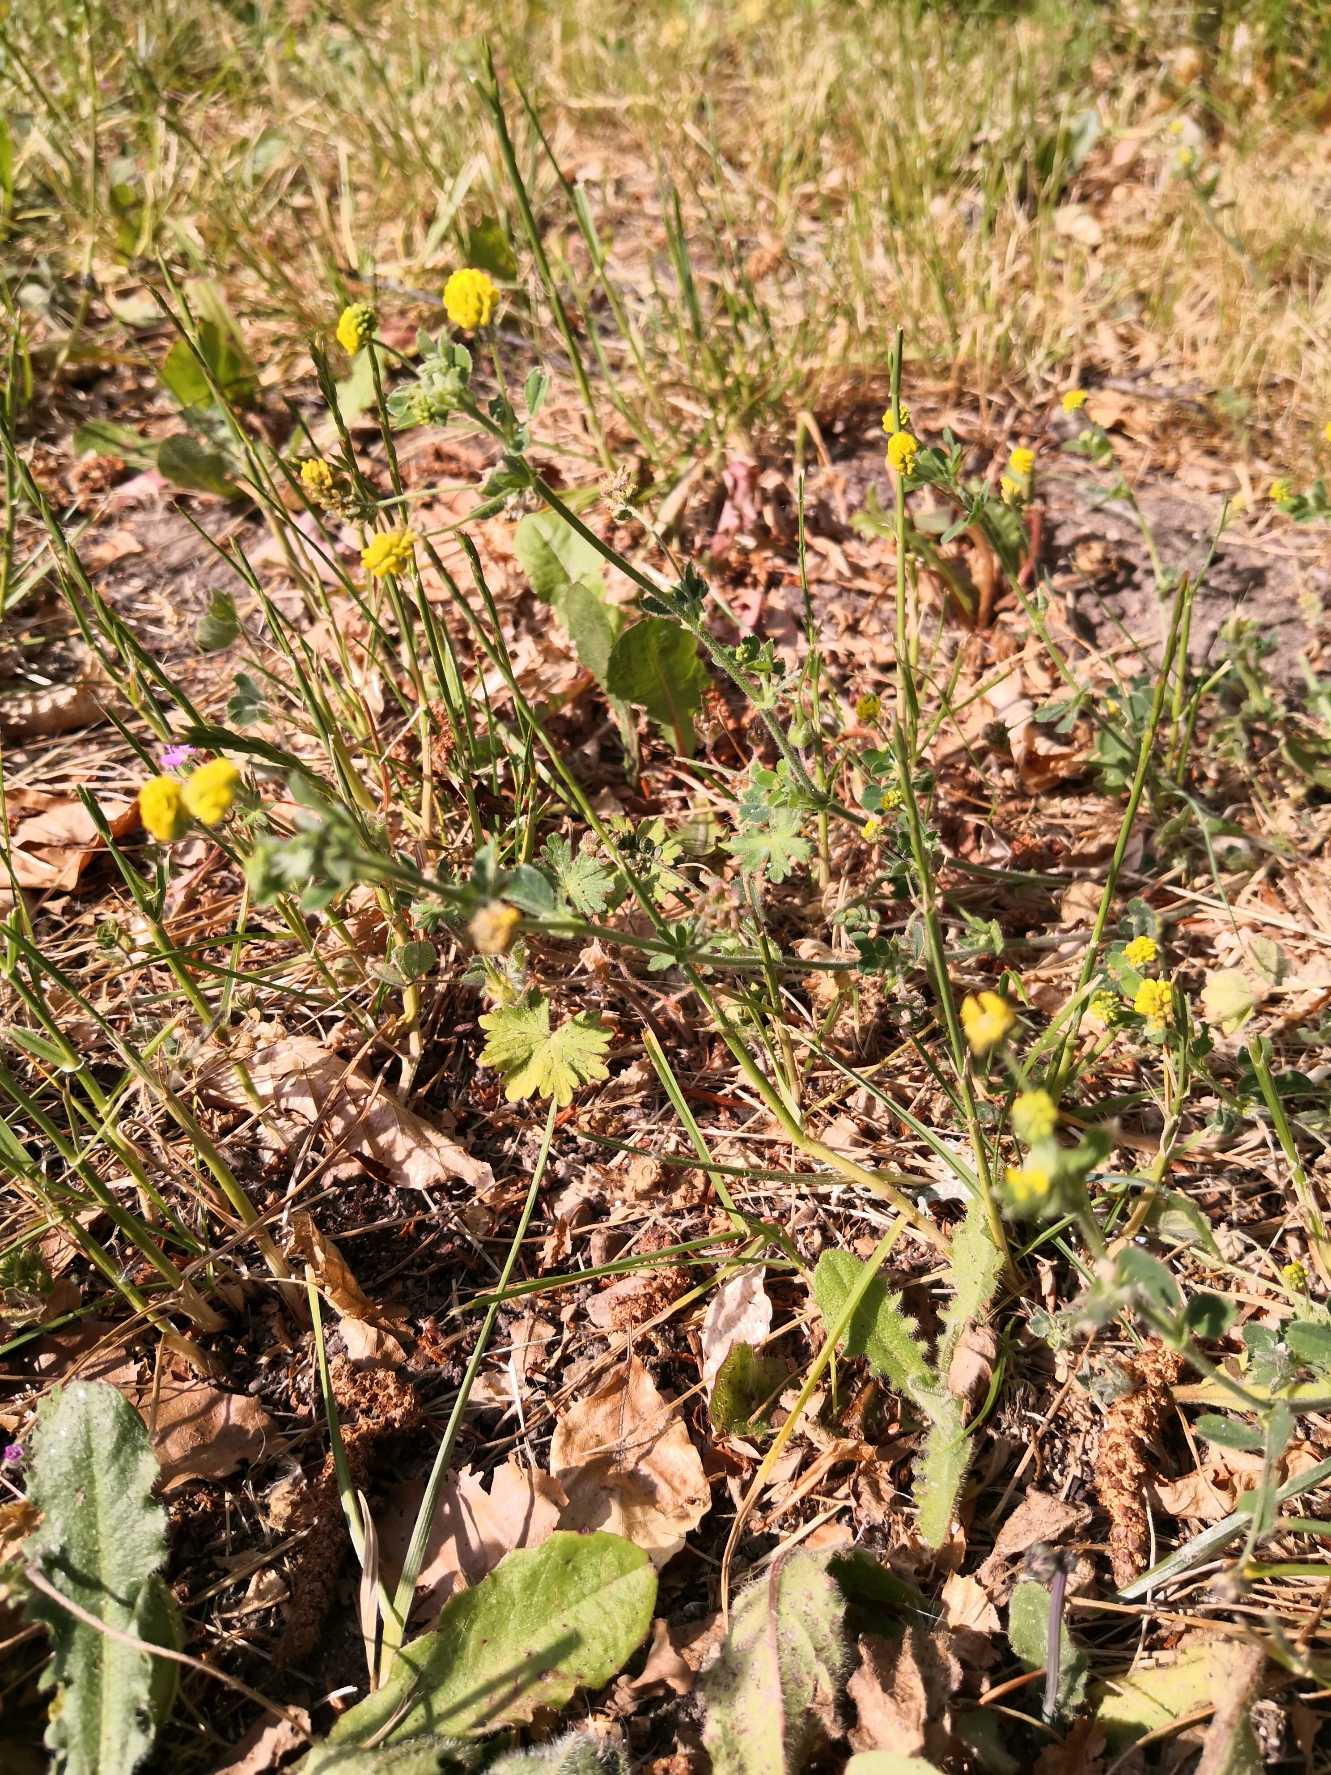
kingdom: Plantae
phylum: Tracheophyta
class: Magnoliopsida
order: Fabales
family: Fabaceae
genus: Medicago
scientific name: Medicago lupulina
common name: Humle-sneglebælg
